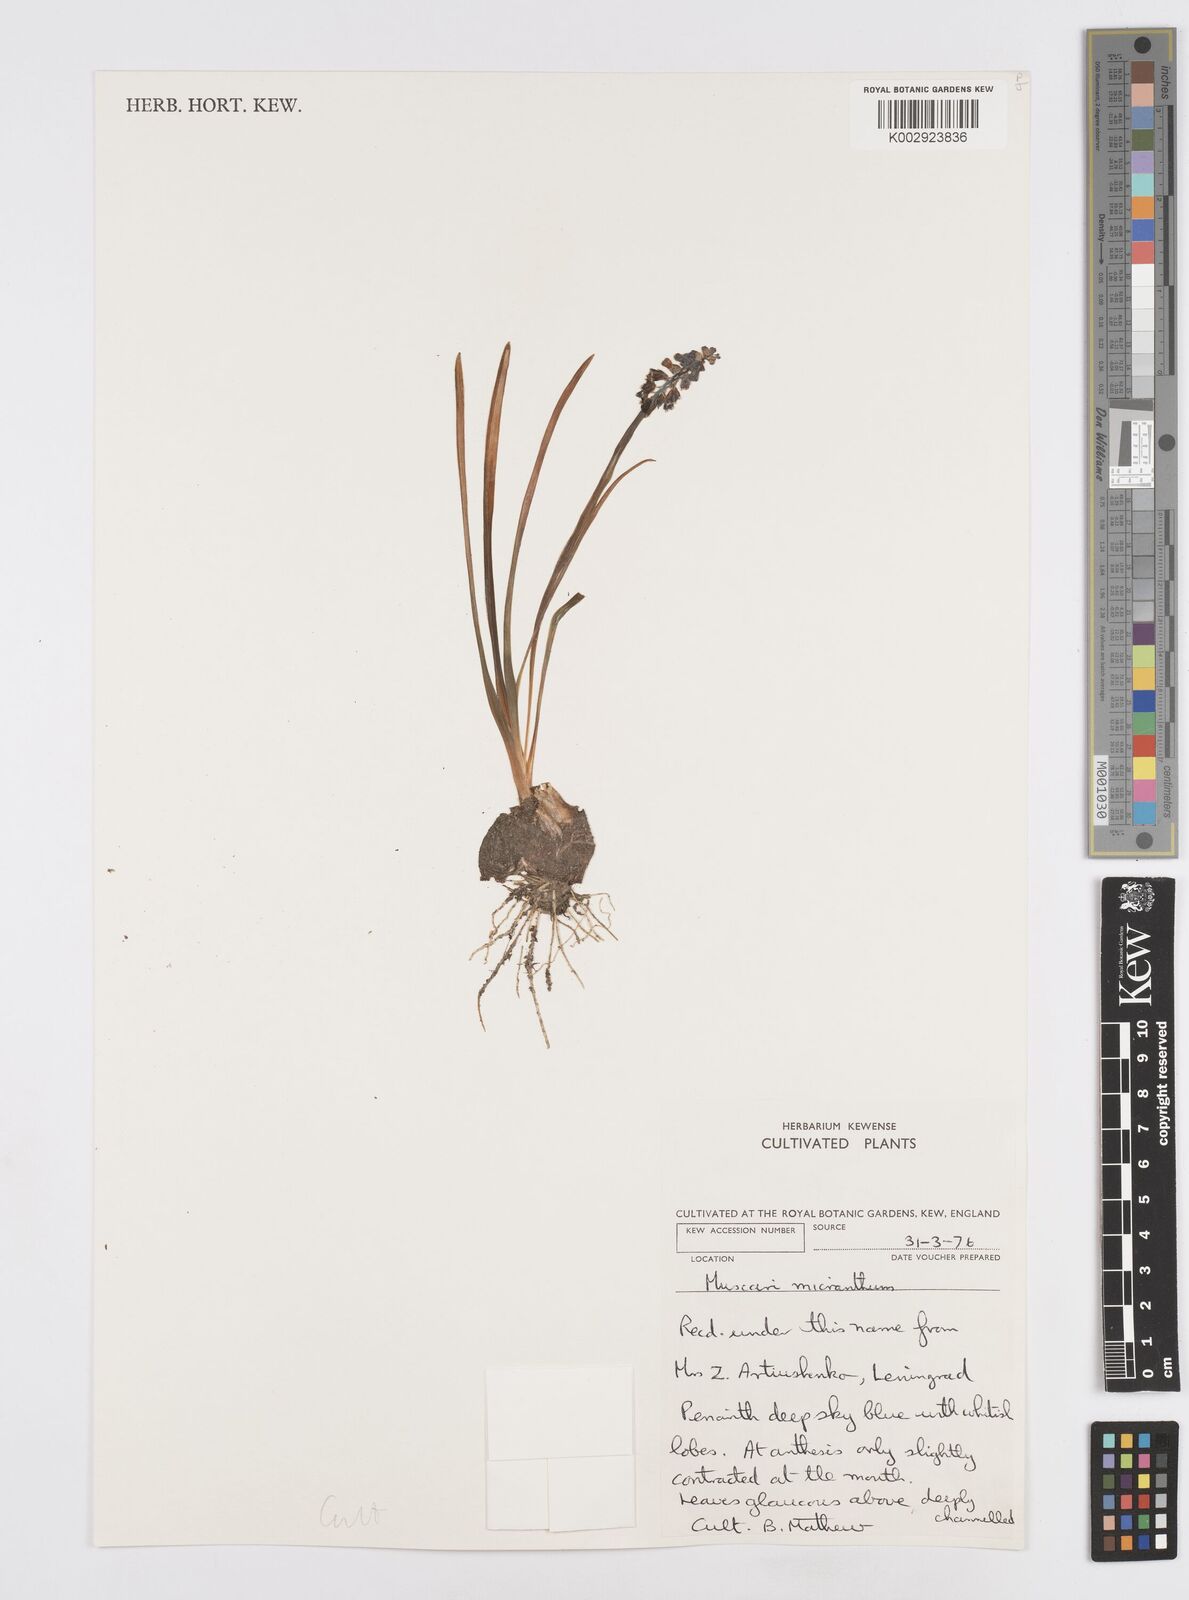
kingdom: Plantae
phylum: Tracheophyta
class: Liliopsida
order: Asparagales
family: Asparagaceae
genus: Muscari
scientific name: Muscari armeniacum
